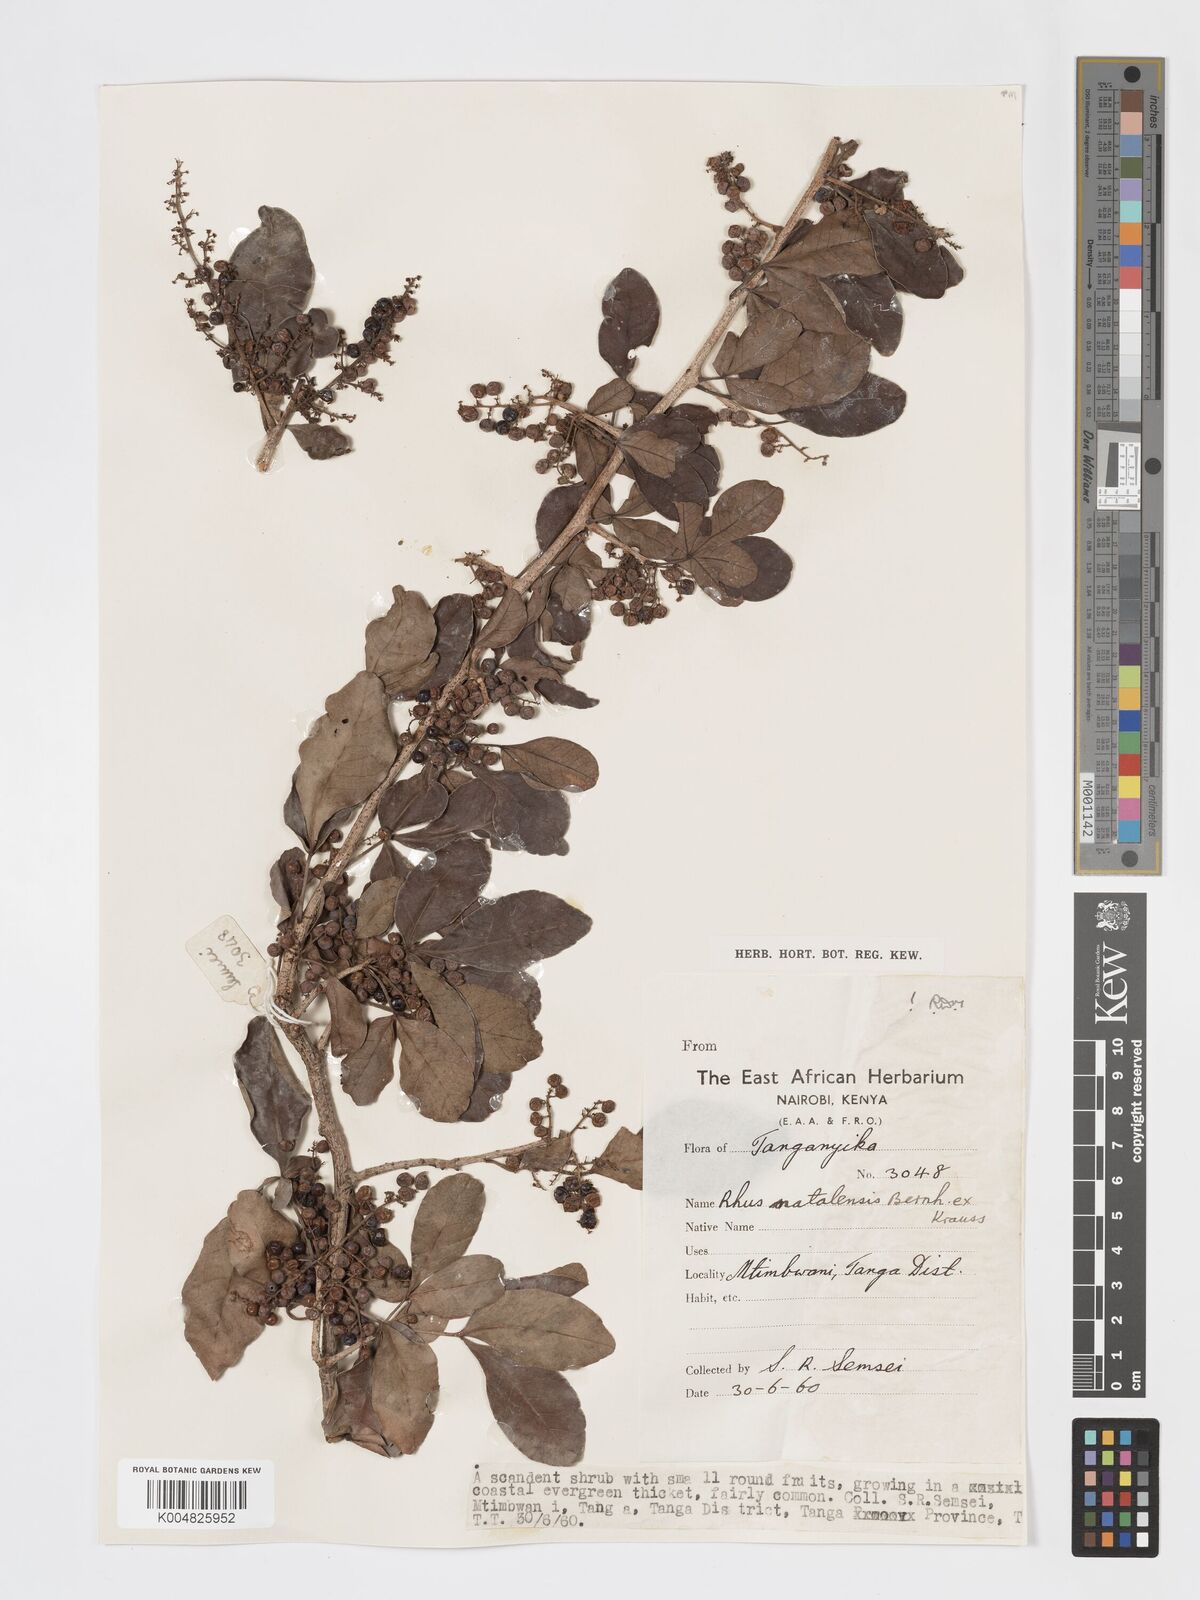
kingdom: Plantae
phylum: Tracheophyta
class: Magnoliopsida
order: Sapindales
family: Anacardiaceae
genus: Searsia
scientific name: Searsia natalensis
